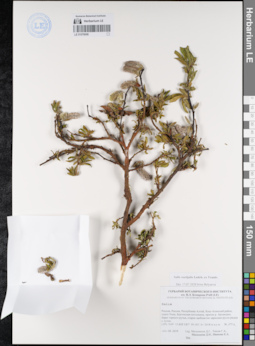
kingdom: Plantae
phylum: Tracheophyta
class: Magnoliopsida
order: Malpighiales
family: Salicaceae
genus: Salix
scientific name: Salix rectijulis
